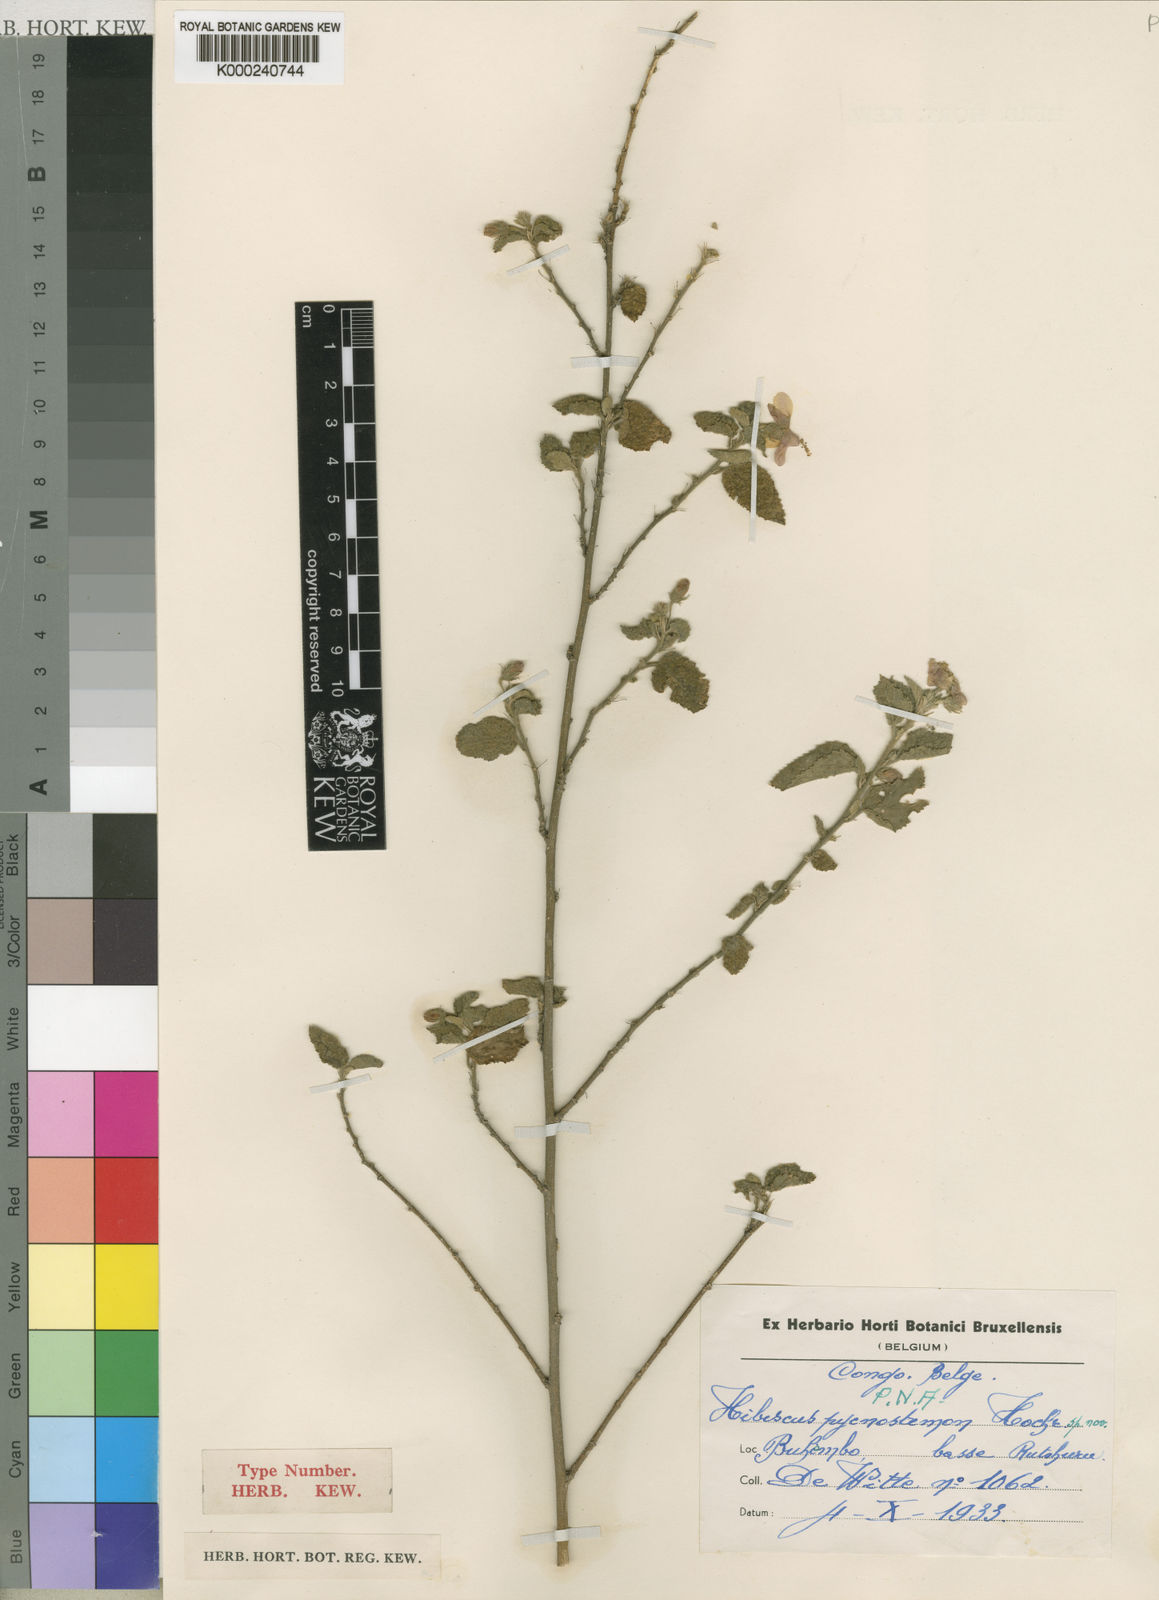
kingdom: Plantae
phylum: Tracheophyta
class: Magnoliopsida
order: Malvales
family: Malvaceae
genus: Hibiscus
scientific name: Hibiscus pycnostemon
